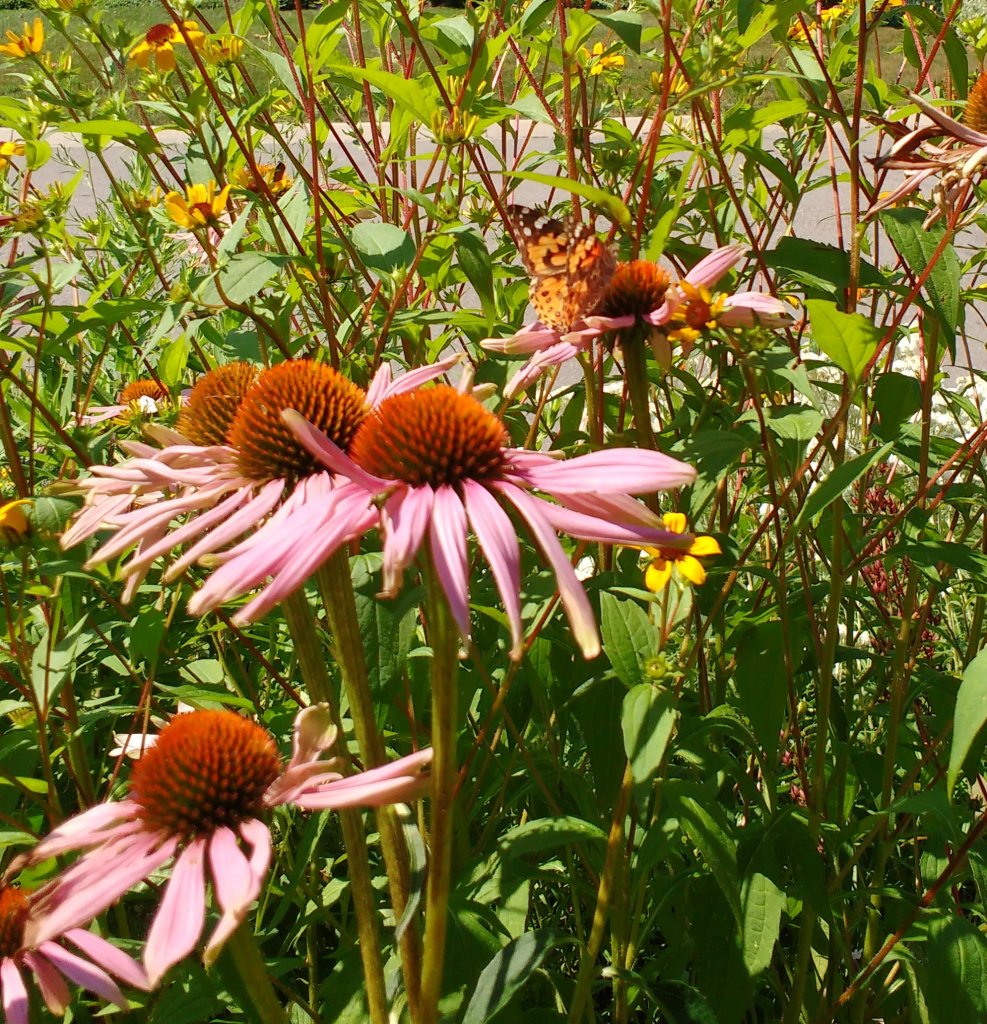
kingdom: Animalia
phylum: Arthropoda
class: Insecta
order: Lepidoptera
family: Nymphalidae
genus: Vanessa
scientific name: Vanessa cardui
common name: Painted Lady
